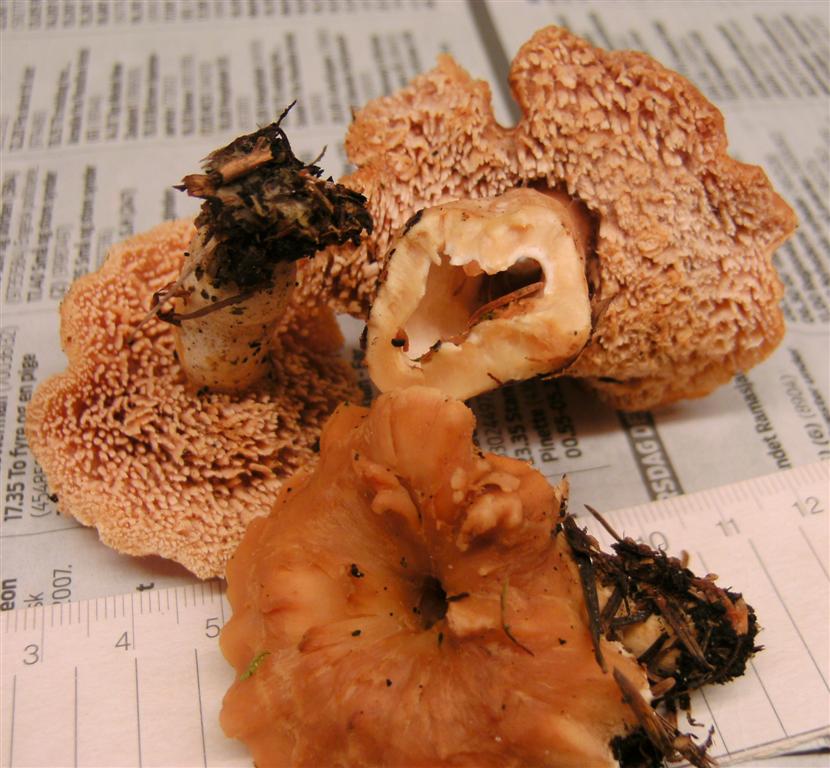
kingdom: Fungi
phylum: Basidiomycota
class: Agaricomycetes
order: Cantharellales
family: Hydnaceae
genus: Hydnum
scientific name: Hydnum umbilicatum
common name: navle-pigsvamp
